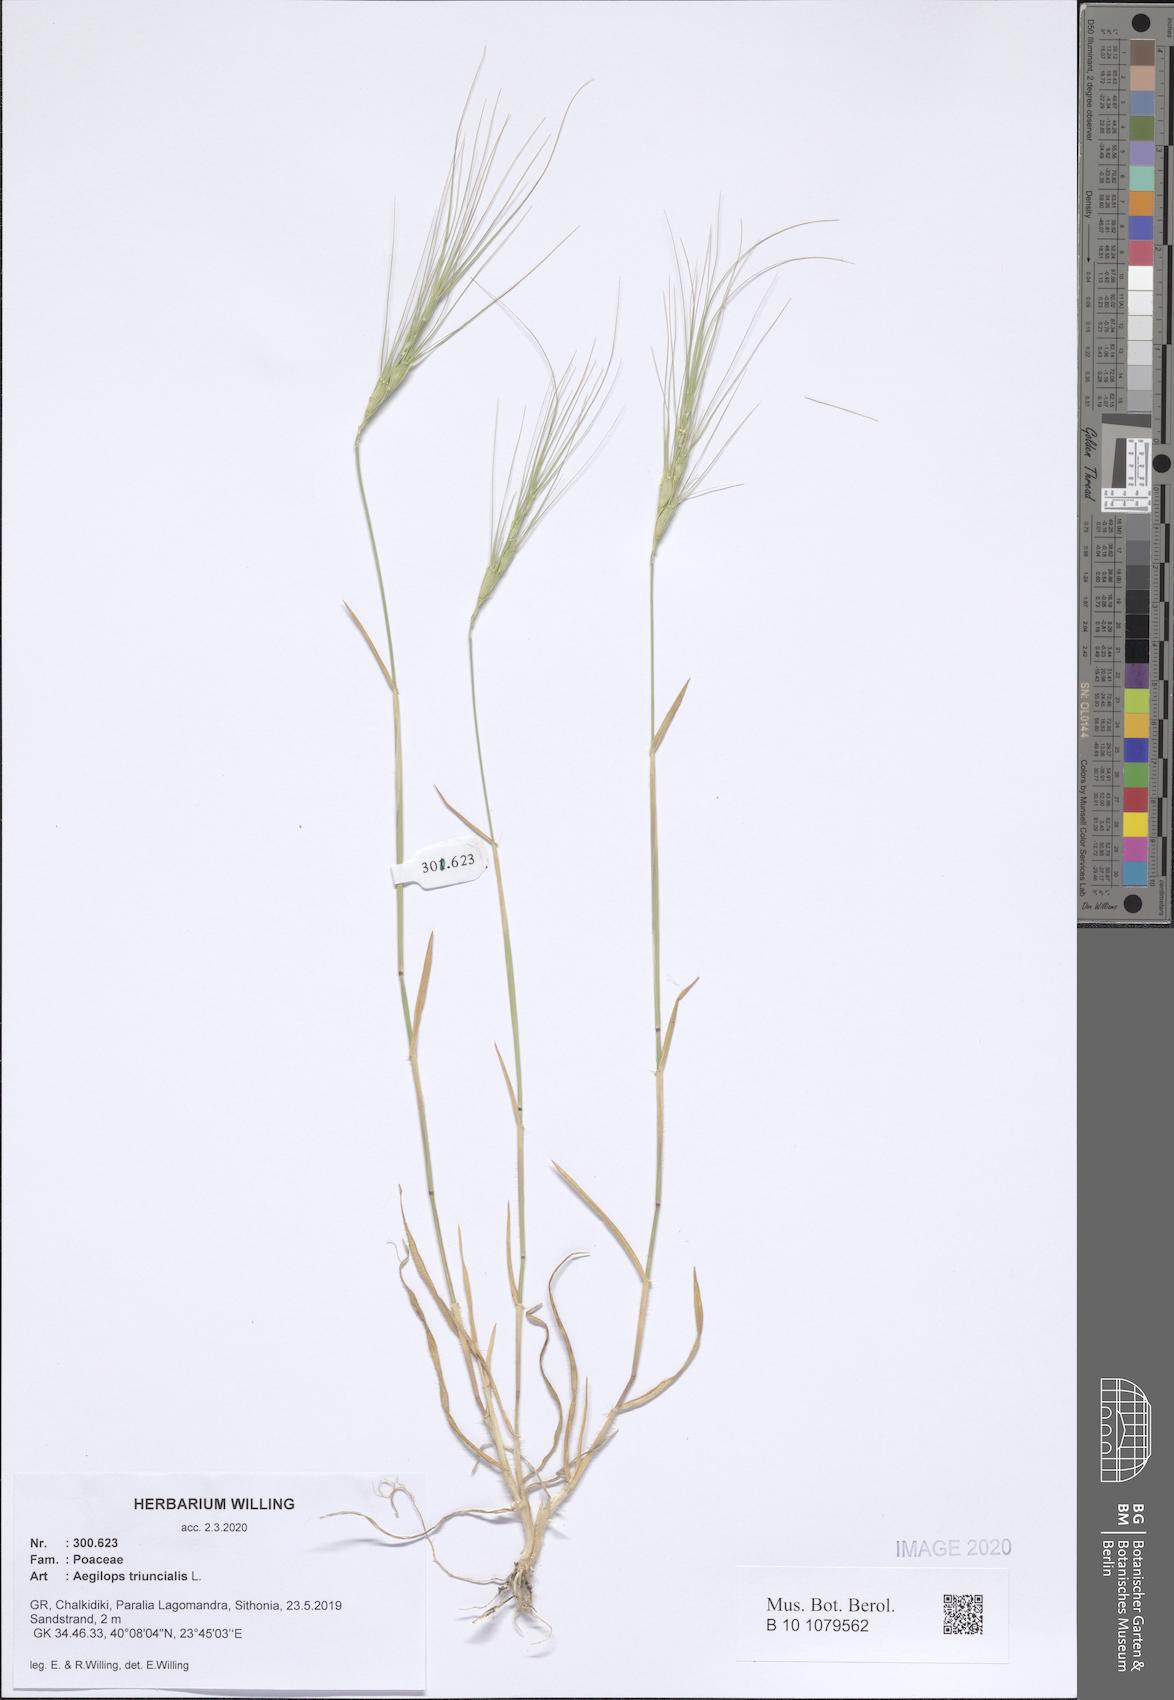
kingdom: Plantae
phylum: Tracheophyta
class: Liliopsida
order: Poales
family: Poaceae
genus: Aegilops
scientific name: Aegilops triuncialis
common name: Barb goat grass
